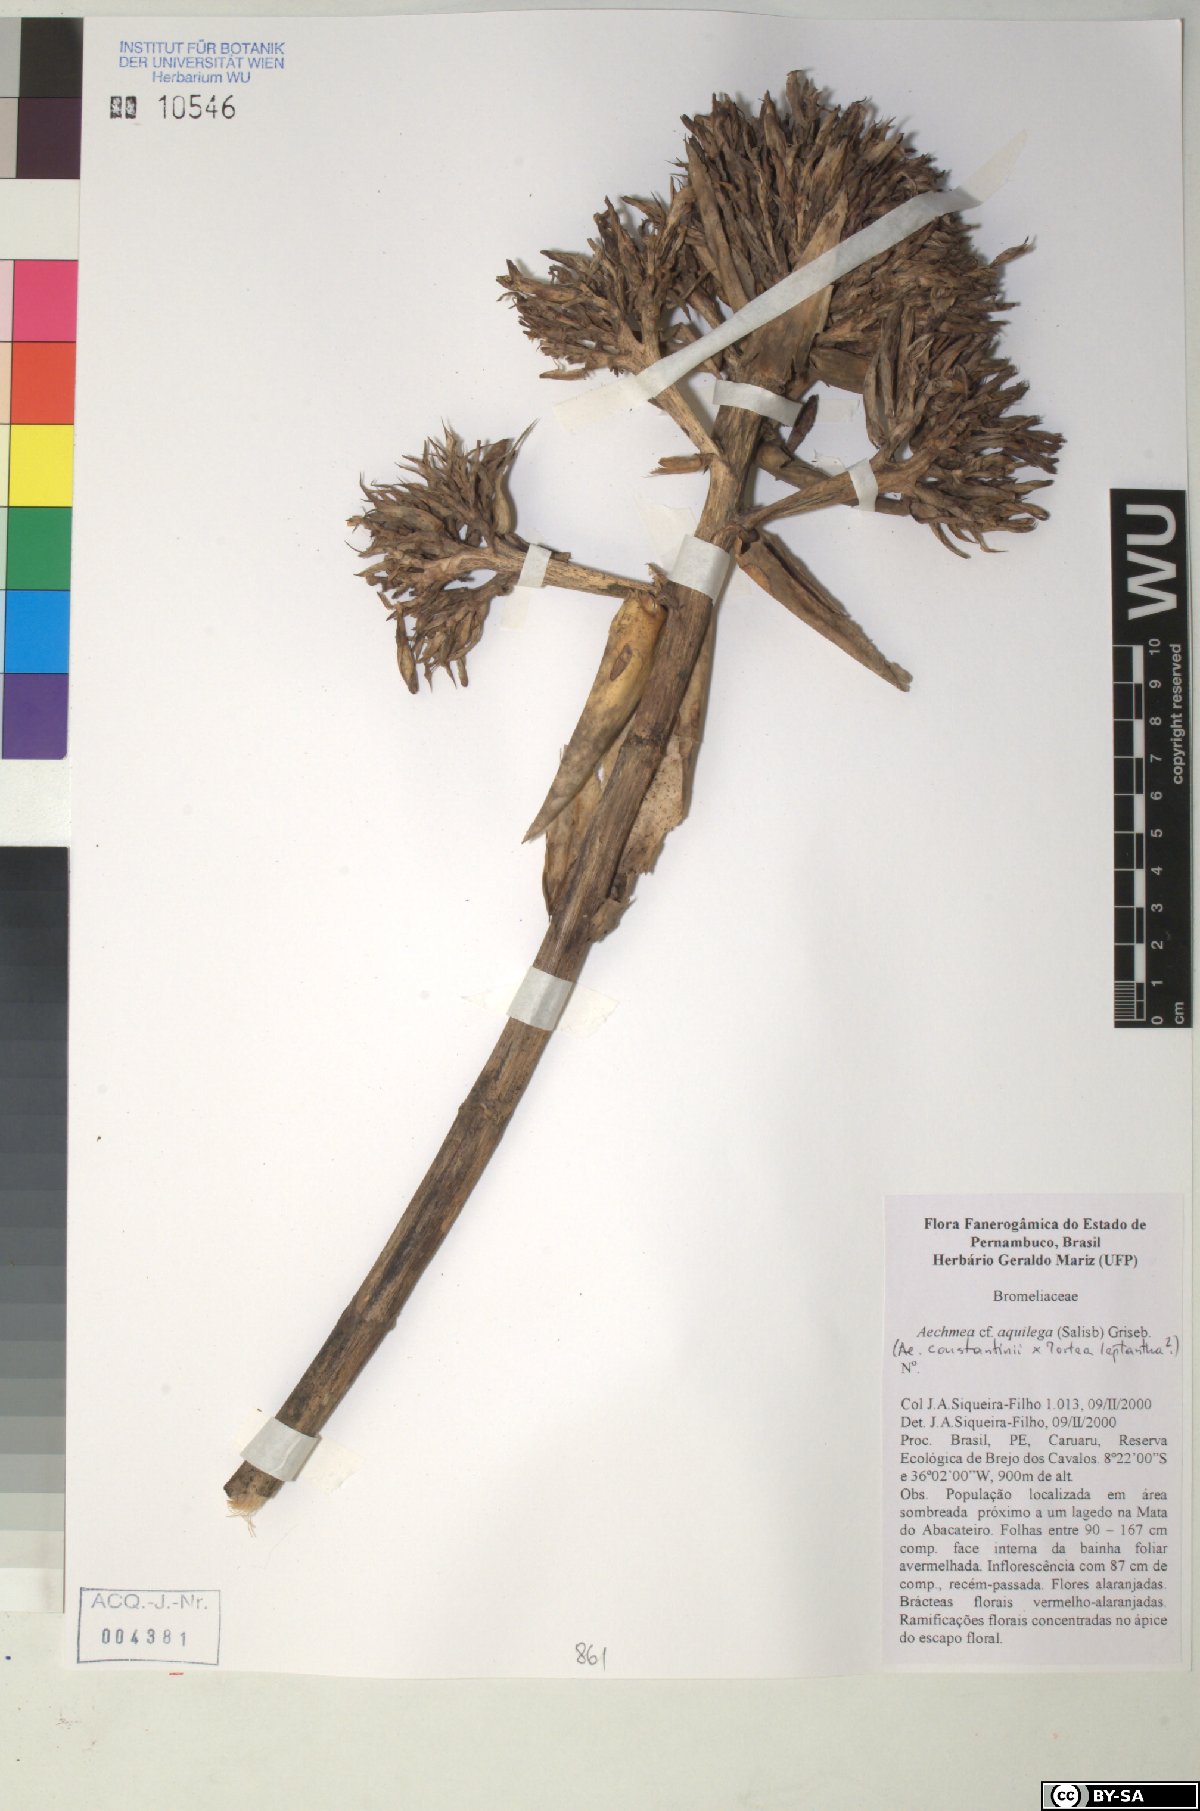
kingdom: Plantae
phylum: Tracheophyta
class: Liliopsida
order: Poales
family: Bromeliaceae
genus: Aechmea
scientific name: Aechmea aquilega
